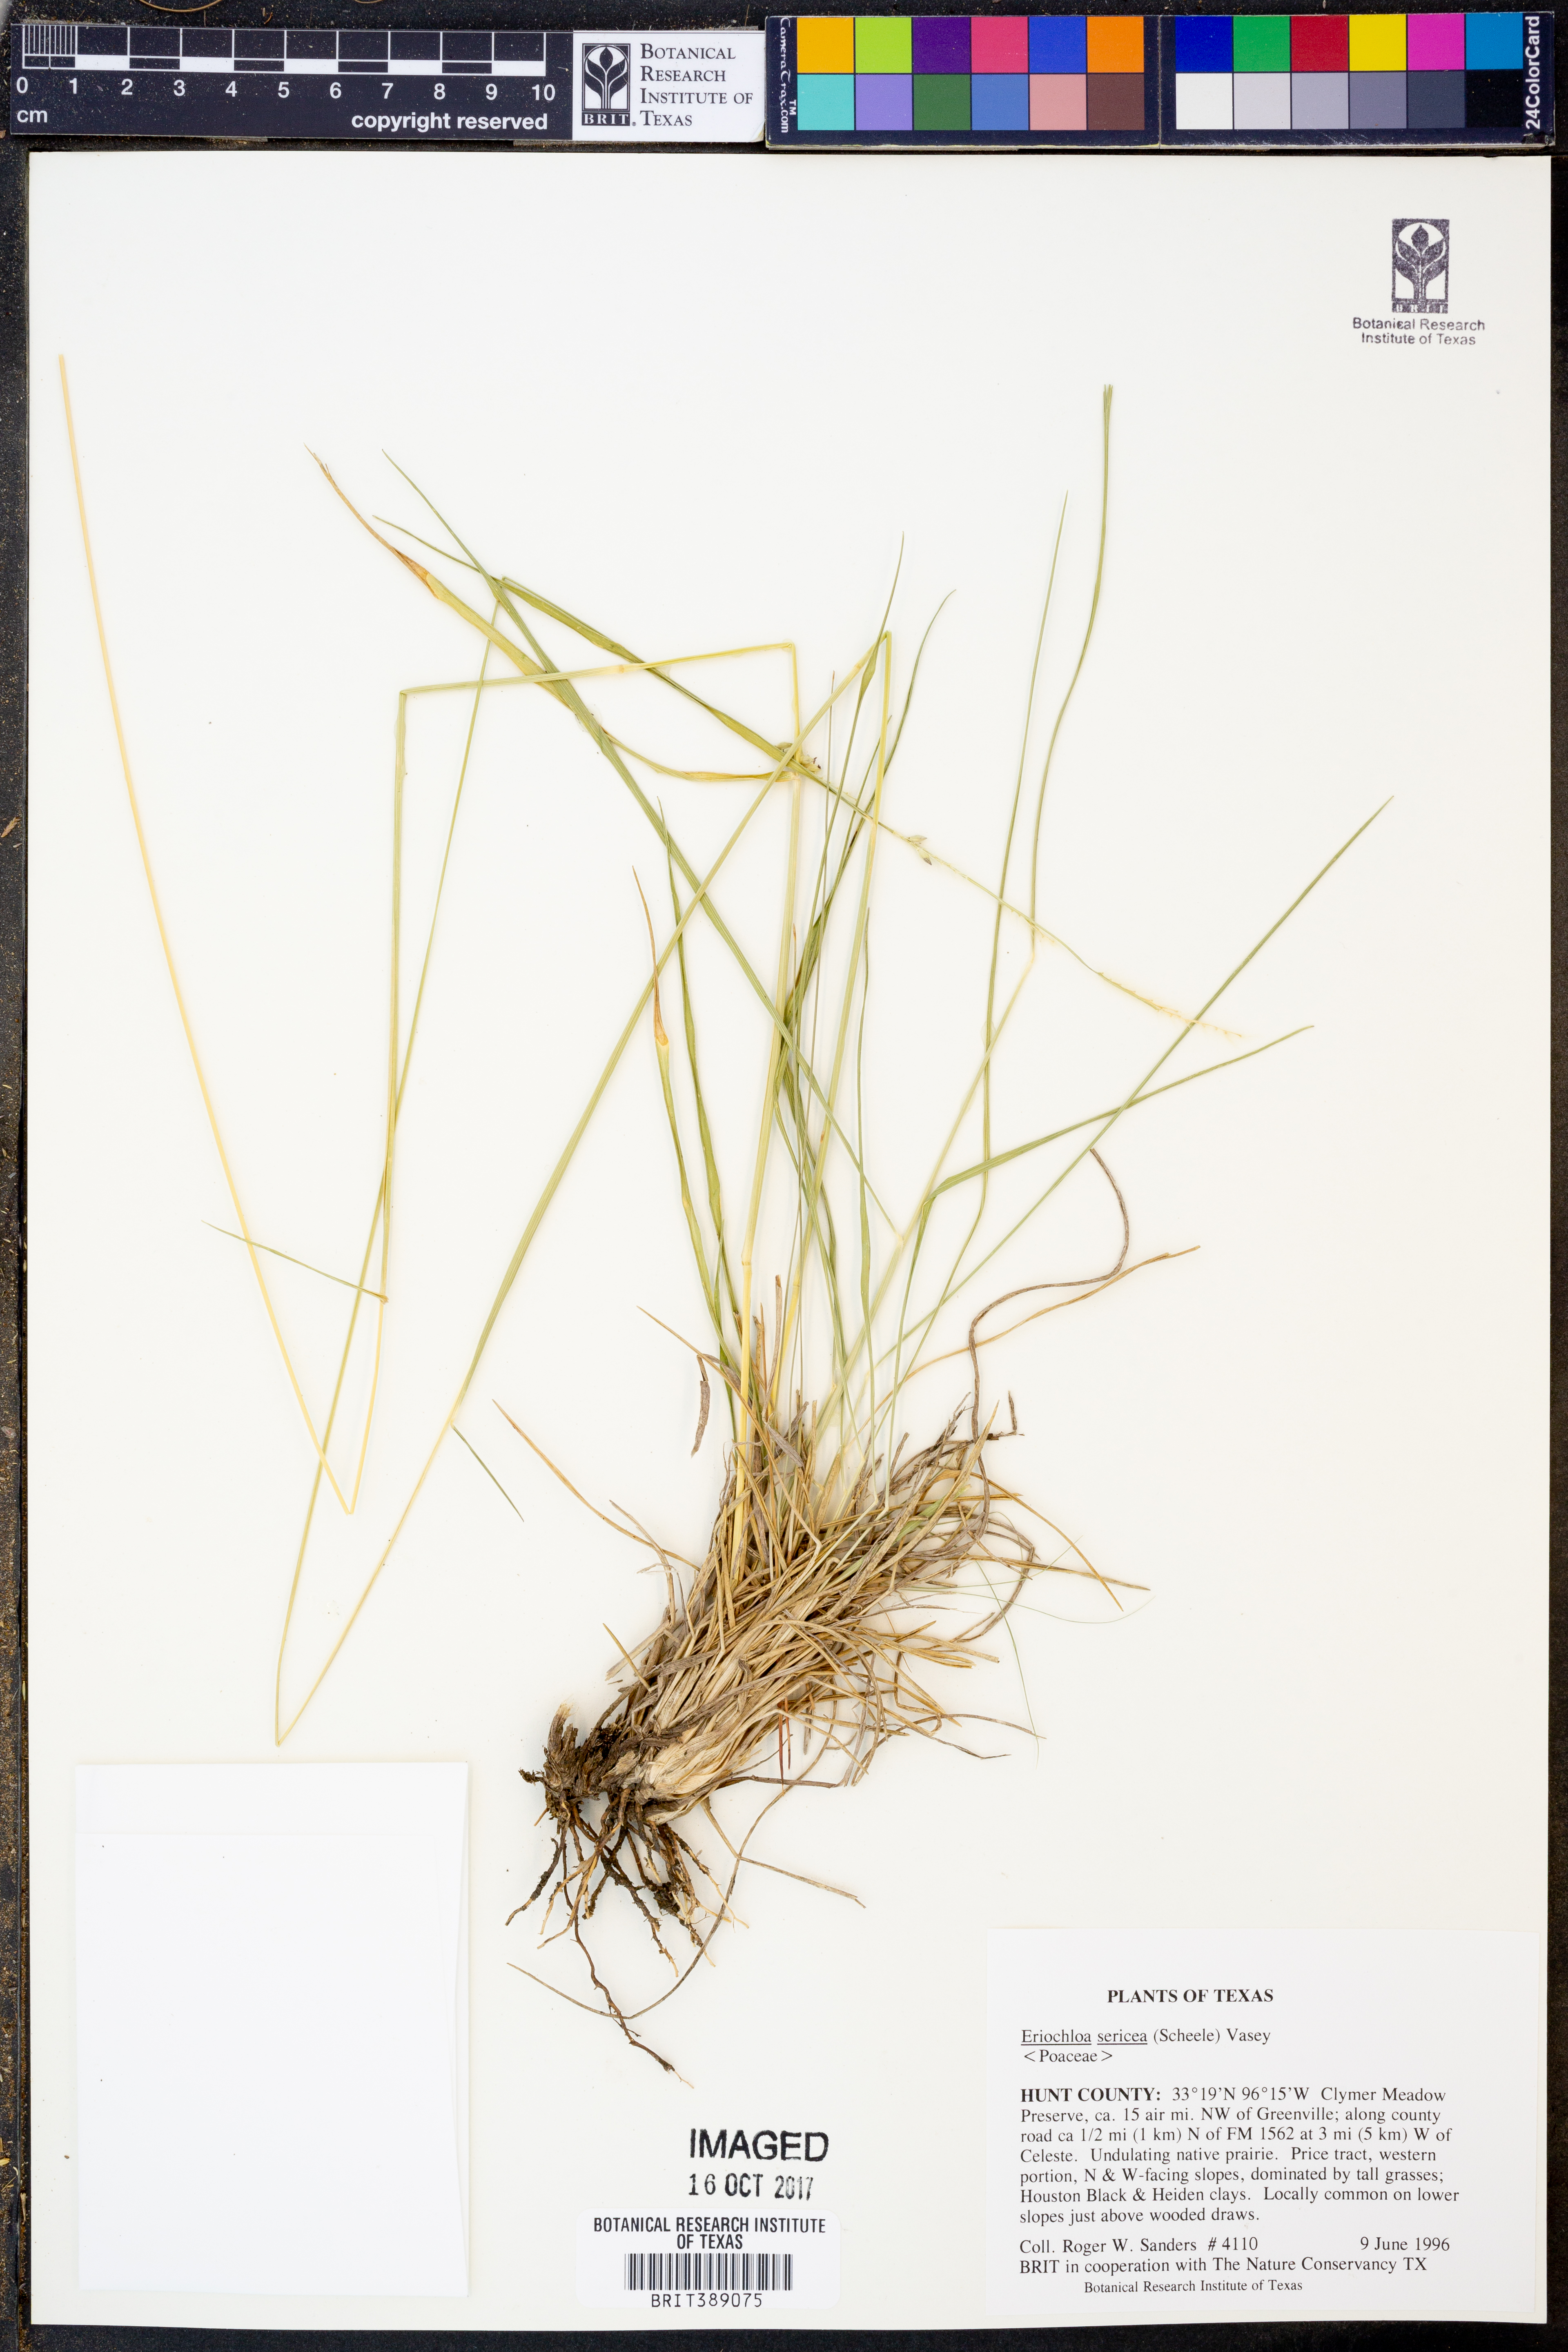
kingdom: Plantae
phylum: Tracheophyta
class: Liliopsida
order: Poales
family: Poaceae
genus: Eriochloa
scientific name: Eriochloa sericea
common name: Texas cup grass
